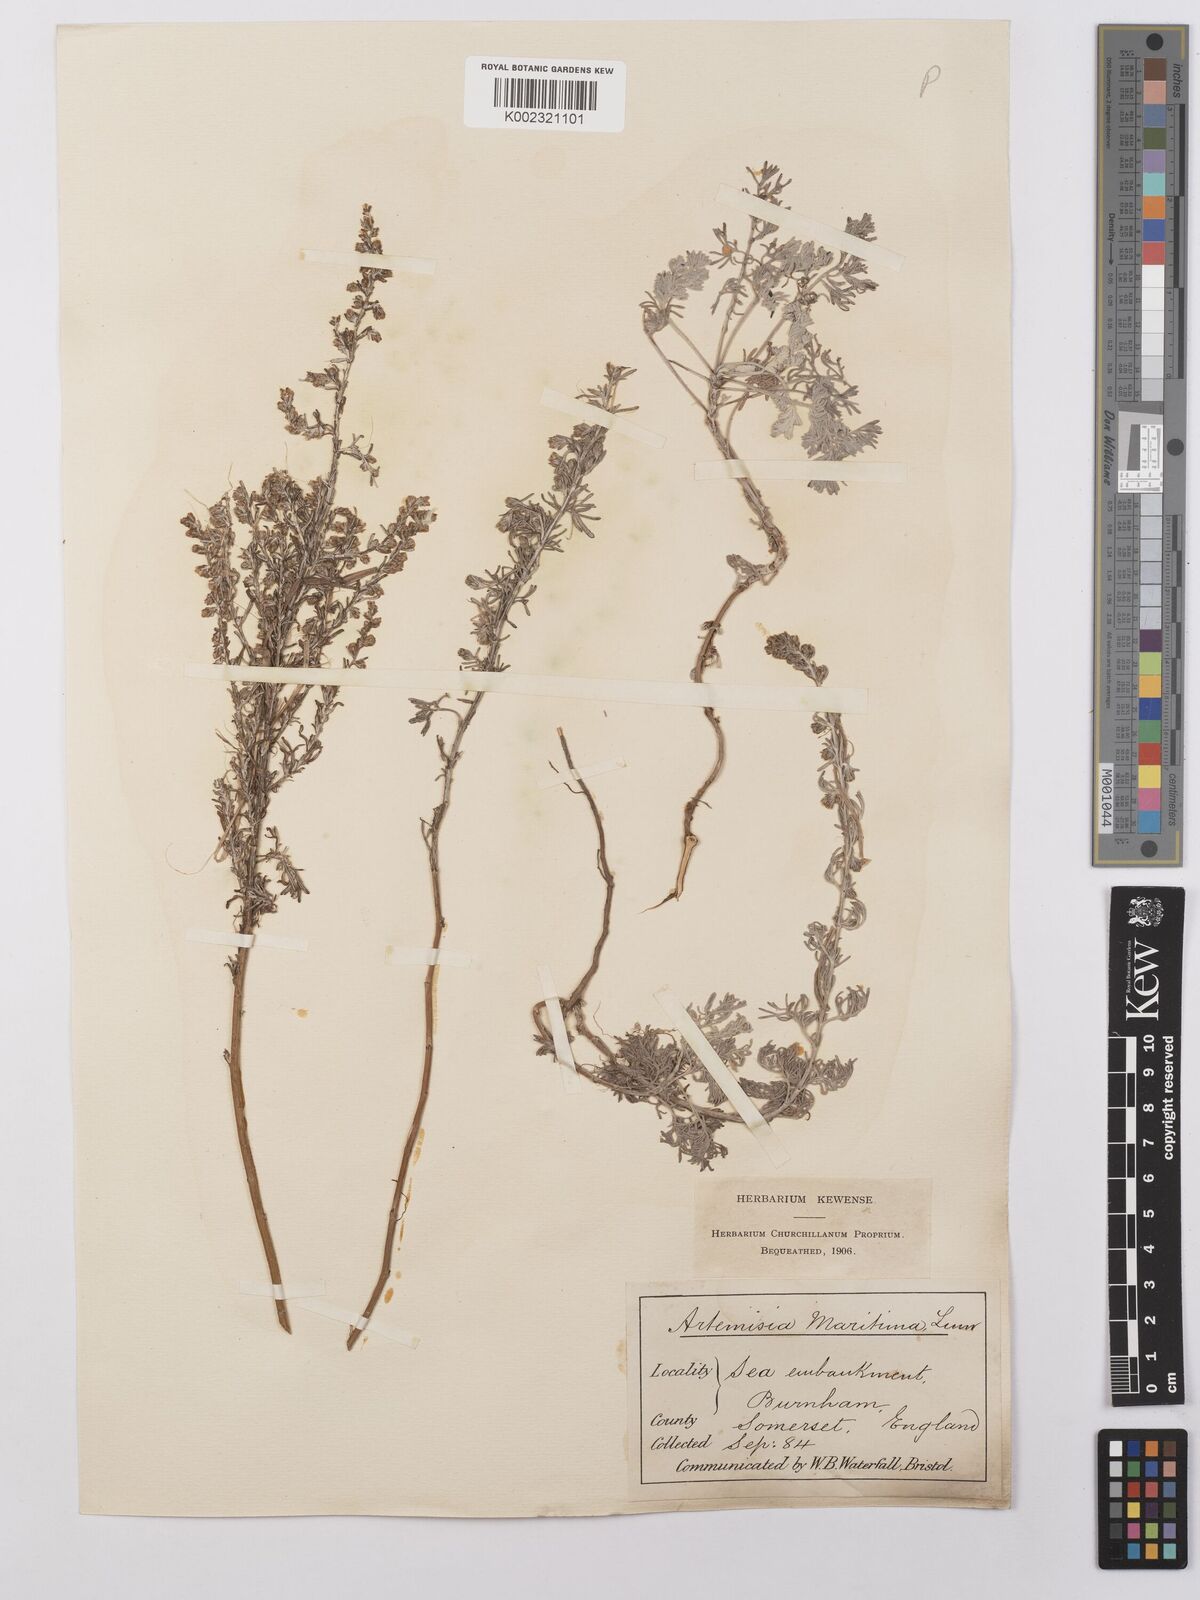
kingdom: Plantae
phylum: Tracheophyta
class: Magnoliopsida
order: Asterales
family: Asteraceae
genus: Artemisia
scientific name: Artemisia maritima
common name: Wormseed
